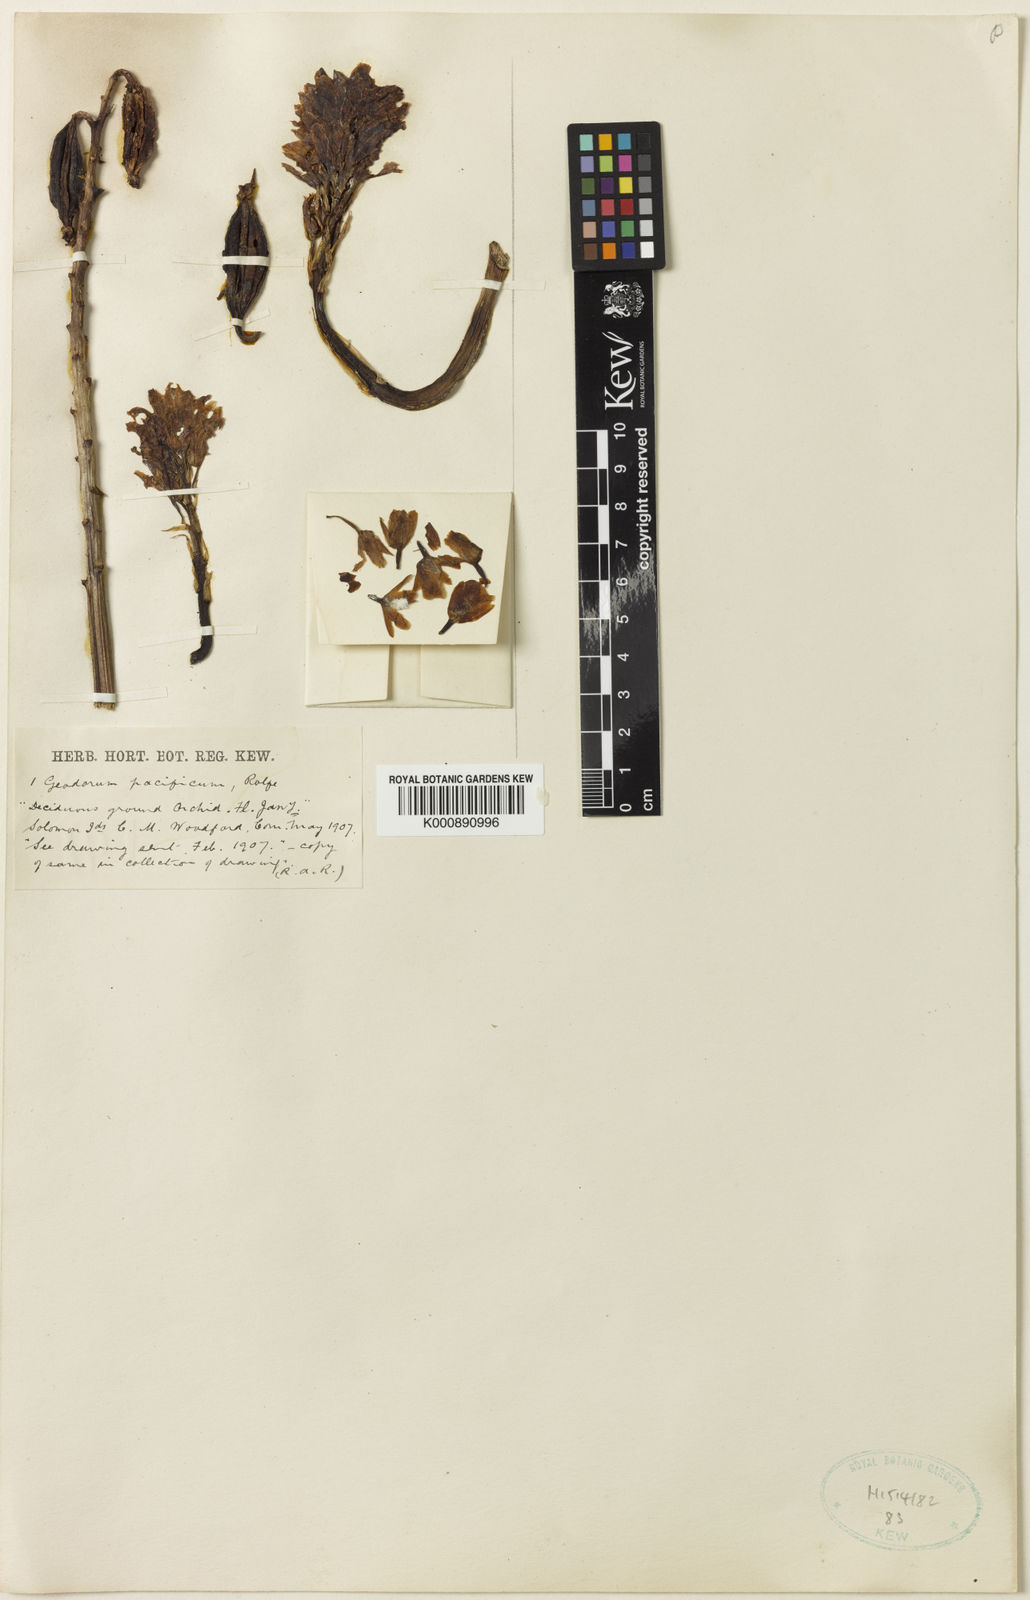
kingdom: Plantae
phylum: Tracheophyta
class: Liliopsida
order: Asparagales
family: Orchidaceae
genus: Eulophia
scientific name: Eulophia cernua
